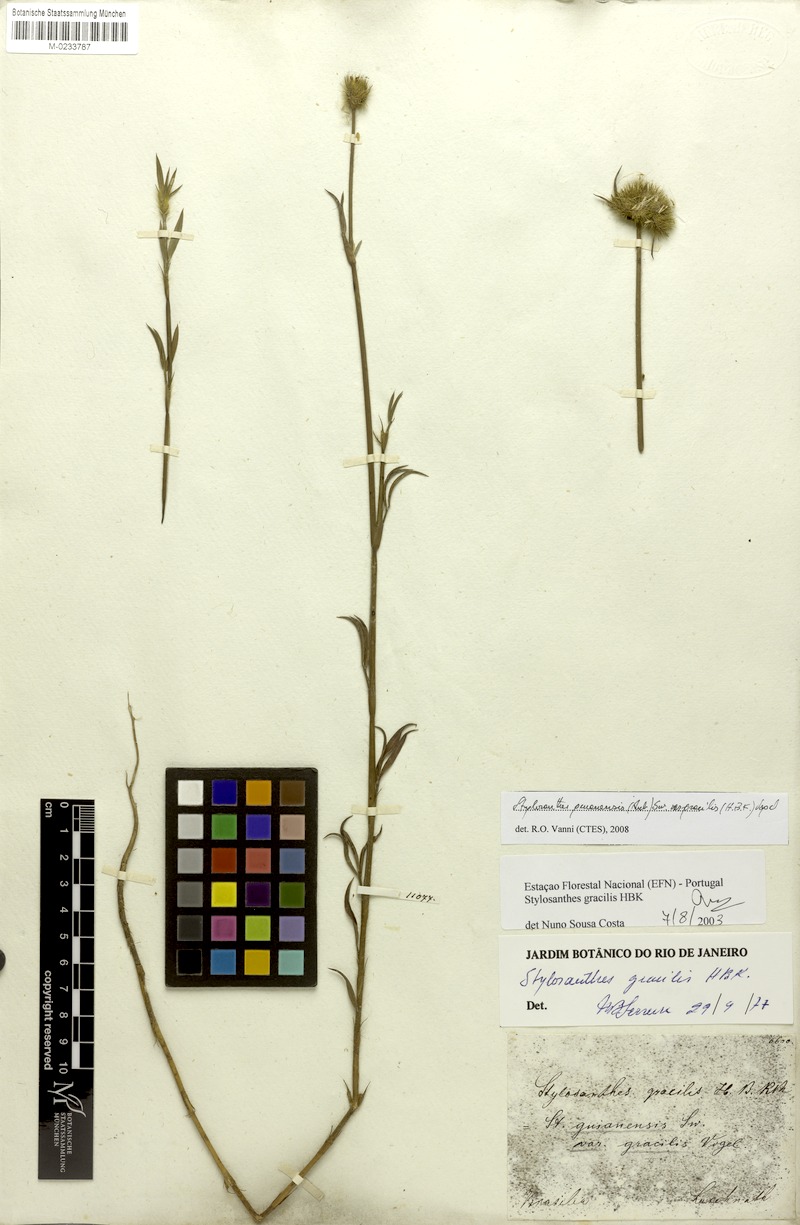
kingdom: Plantae
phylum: Tracheophyta
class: Magnoliopsida
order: Fabales
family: Fabaceae
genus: Stylosanthes
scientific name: Stylosanthes guianensis
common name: Pencil flower
